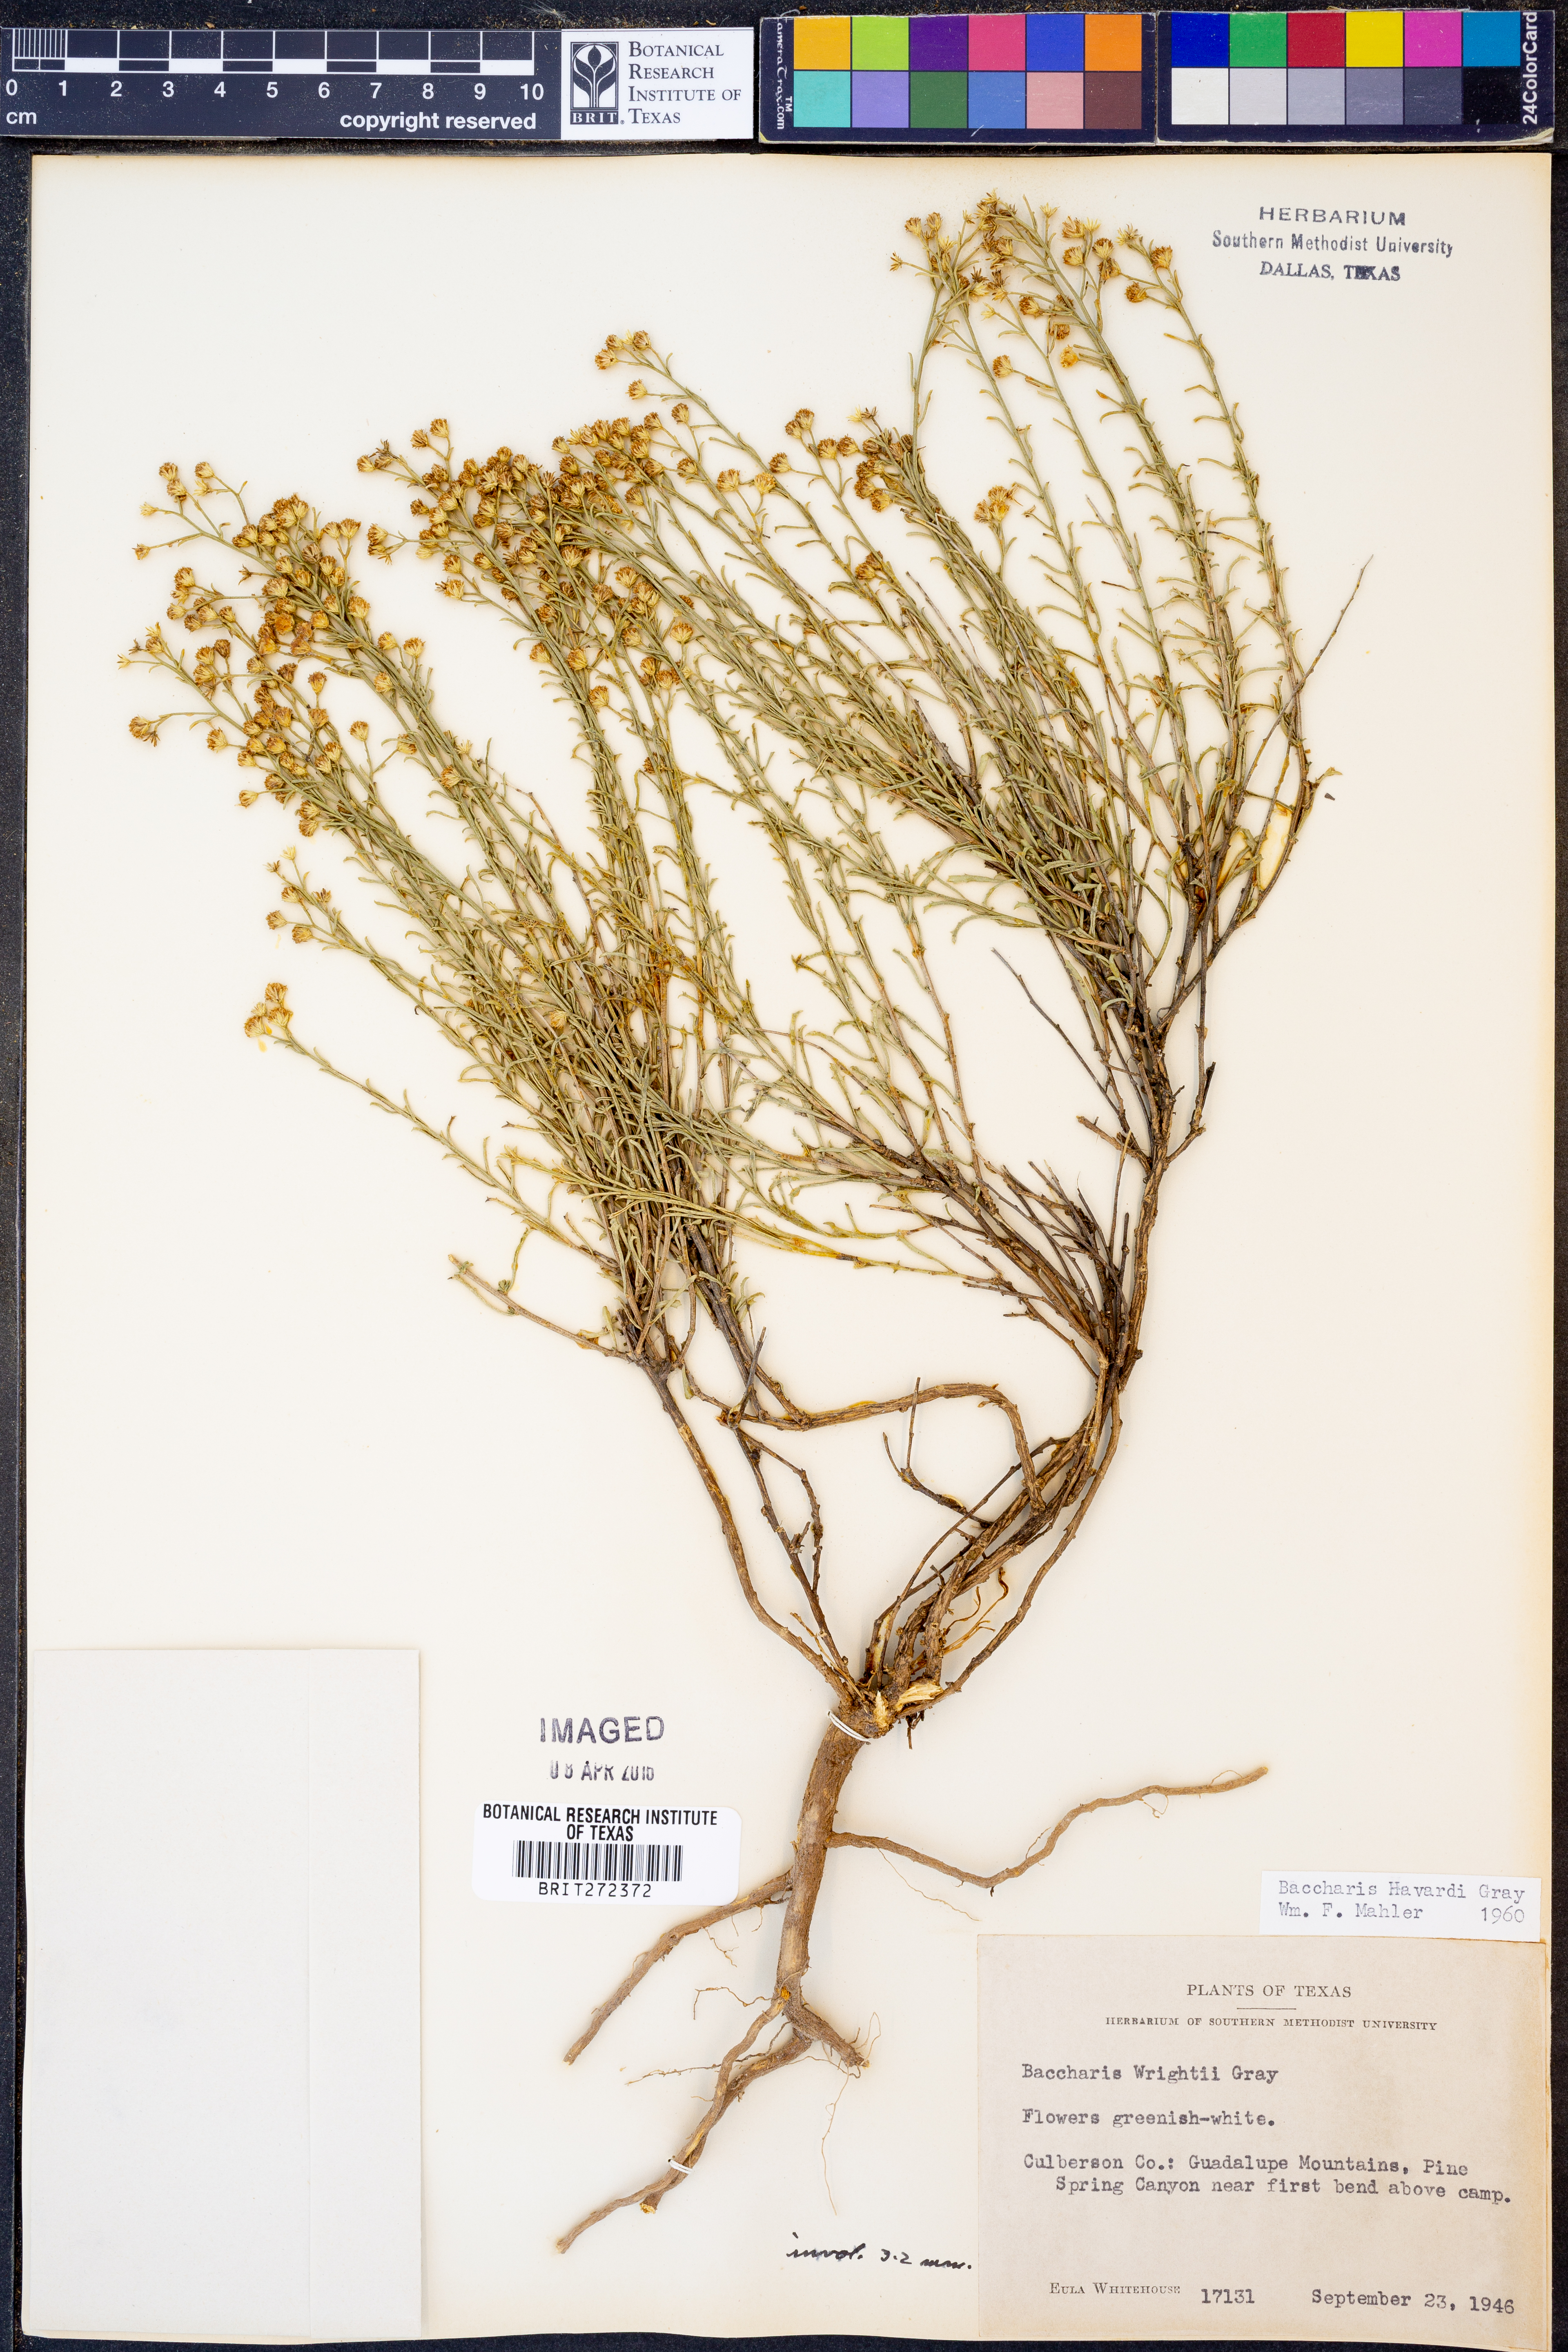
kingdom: Plantae
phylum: Tracheophyta
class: Magnoliopsida
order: Asterales
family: Asteraceae
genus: Baccharis
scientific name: Baccharis havardii
